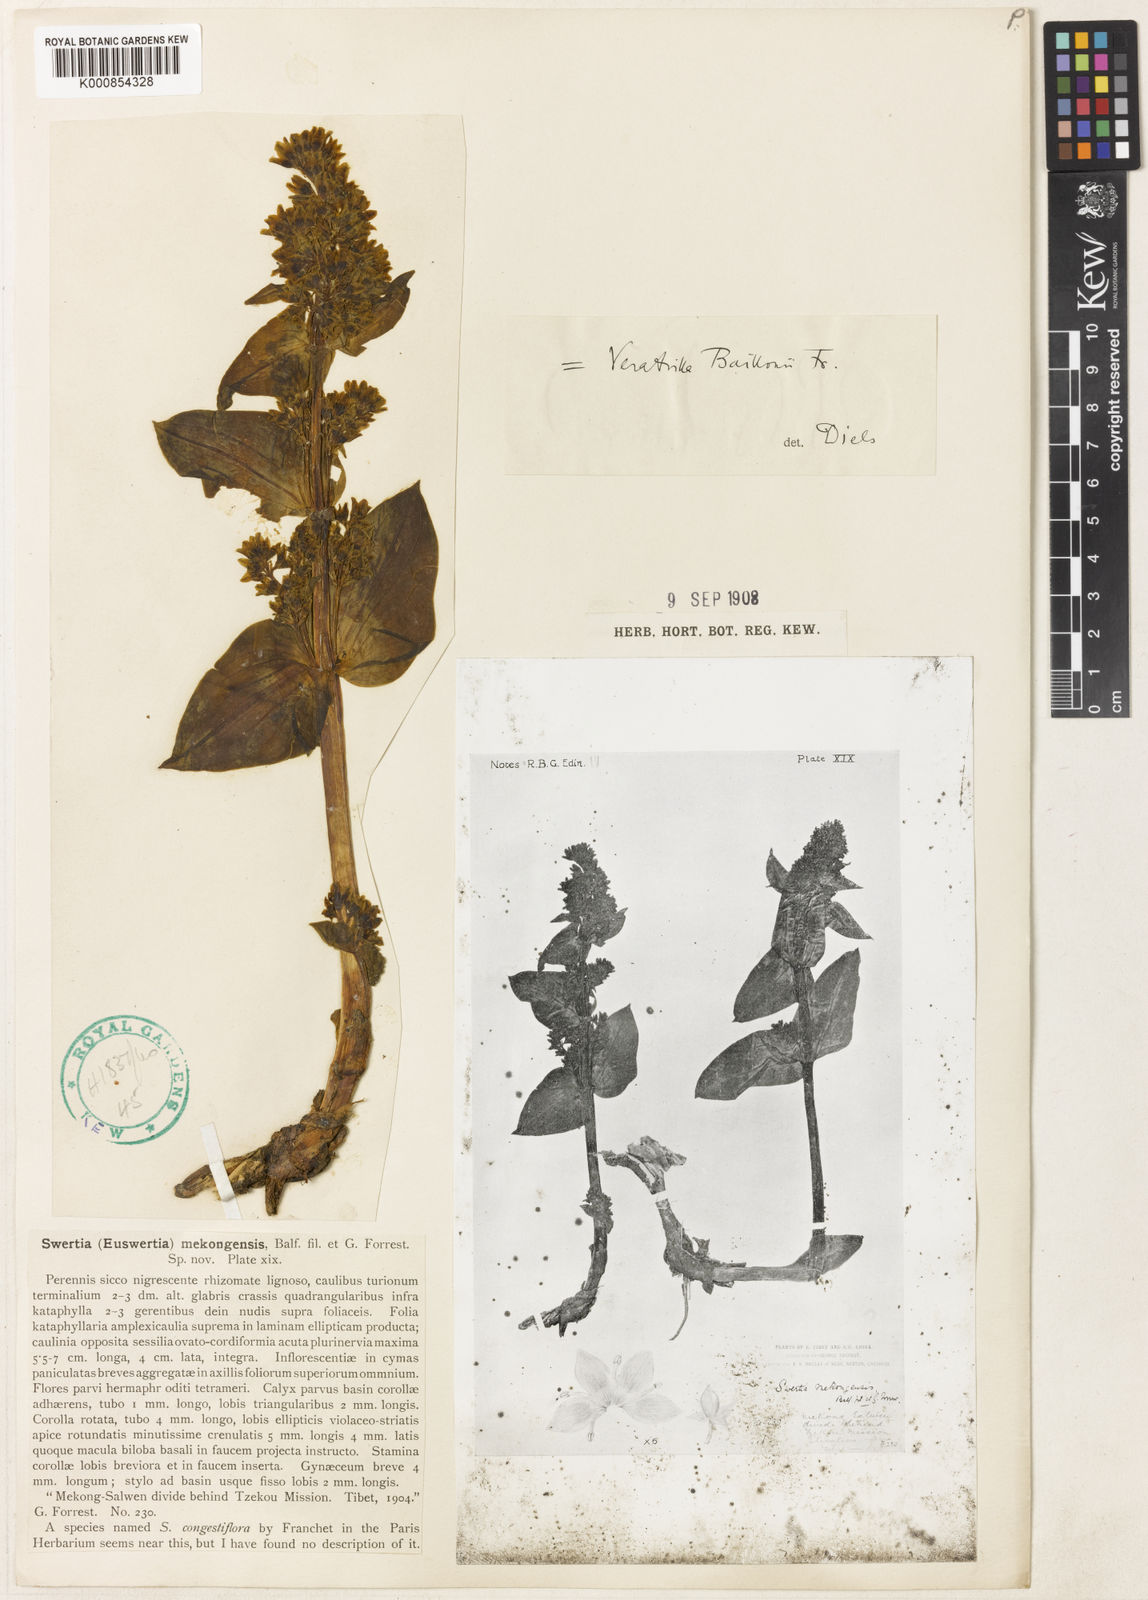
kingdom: Plantae
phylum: Tracheophyta
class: Magnoliopsida
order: Gentianales
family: Gentianaceae
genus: Veratrilla
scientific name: Veratrilla baillonii
